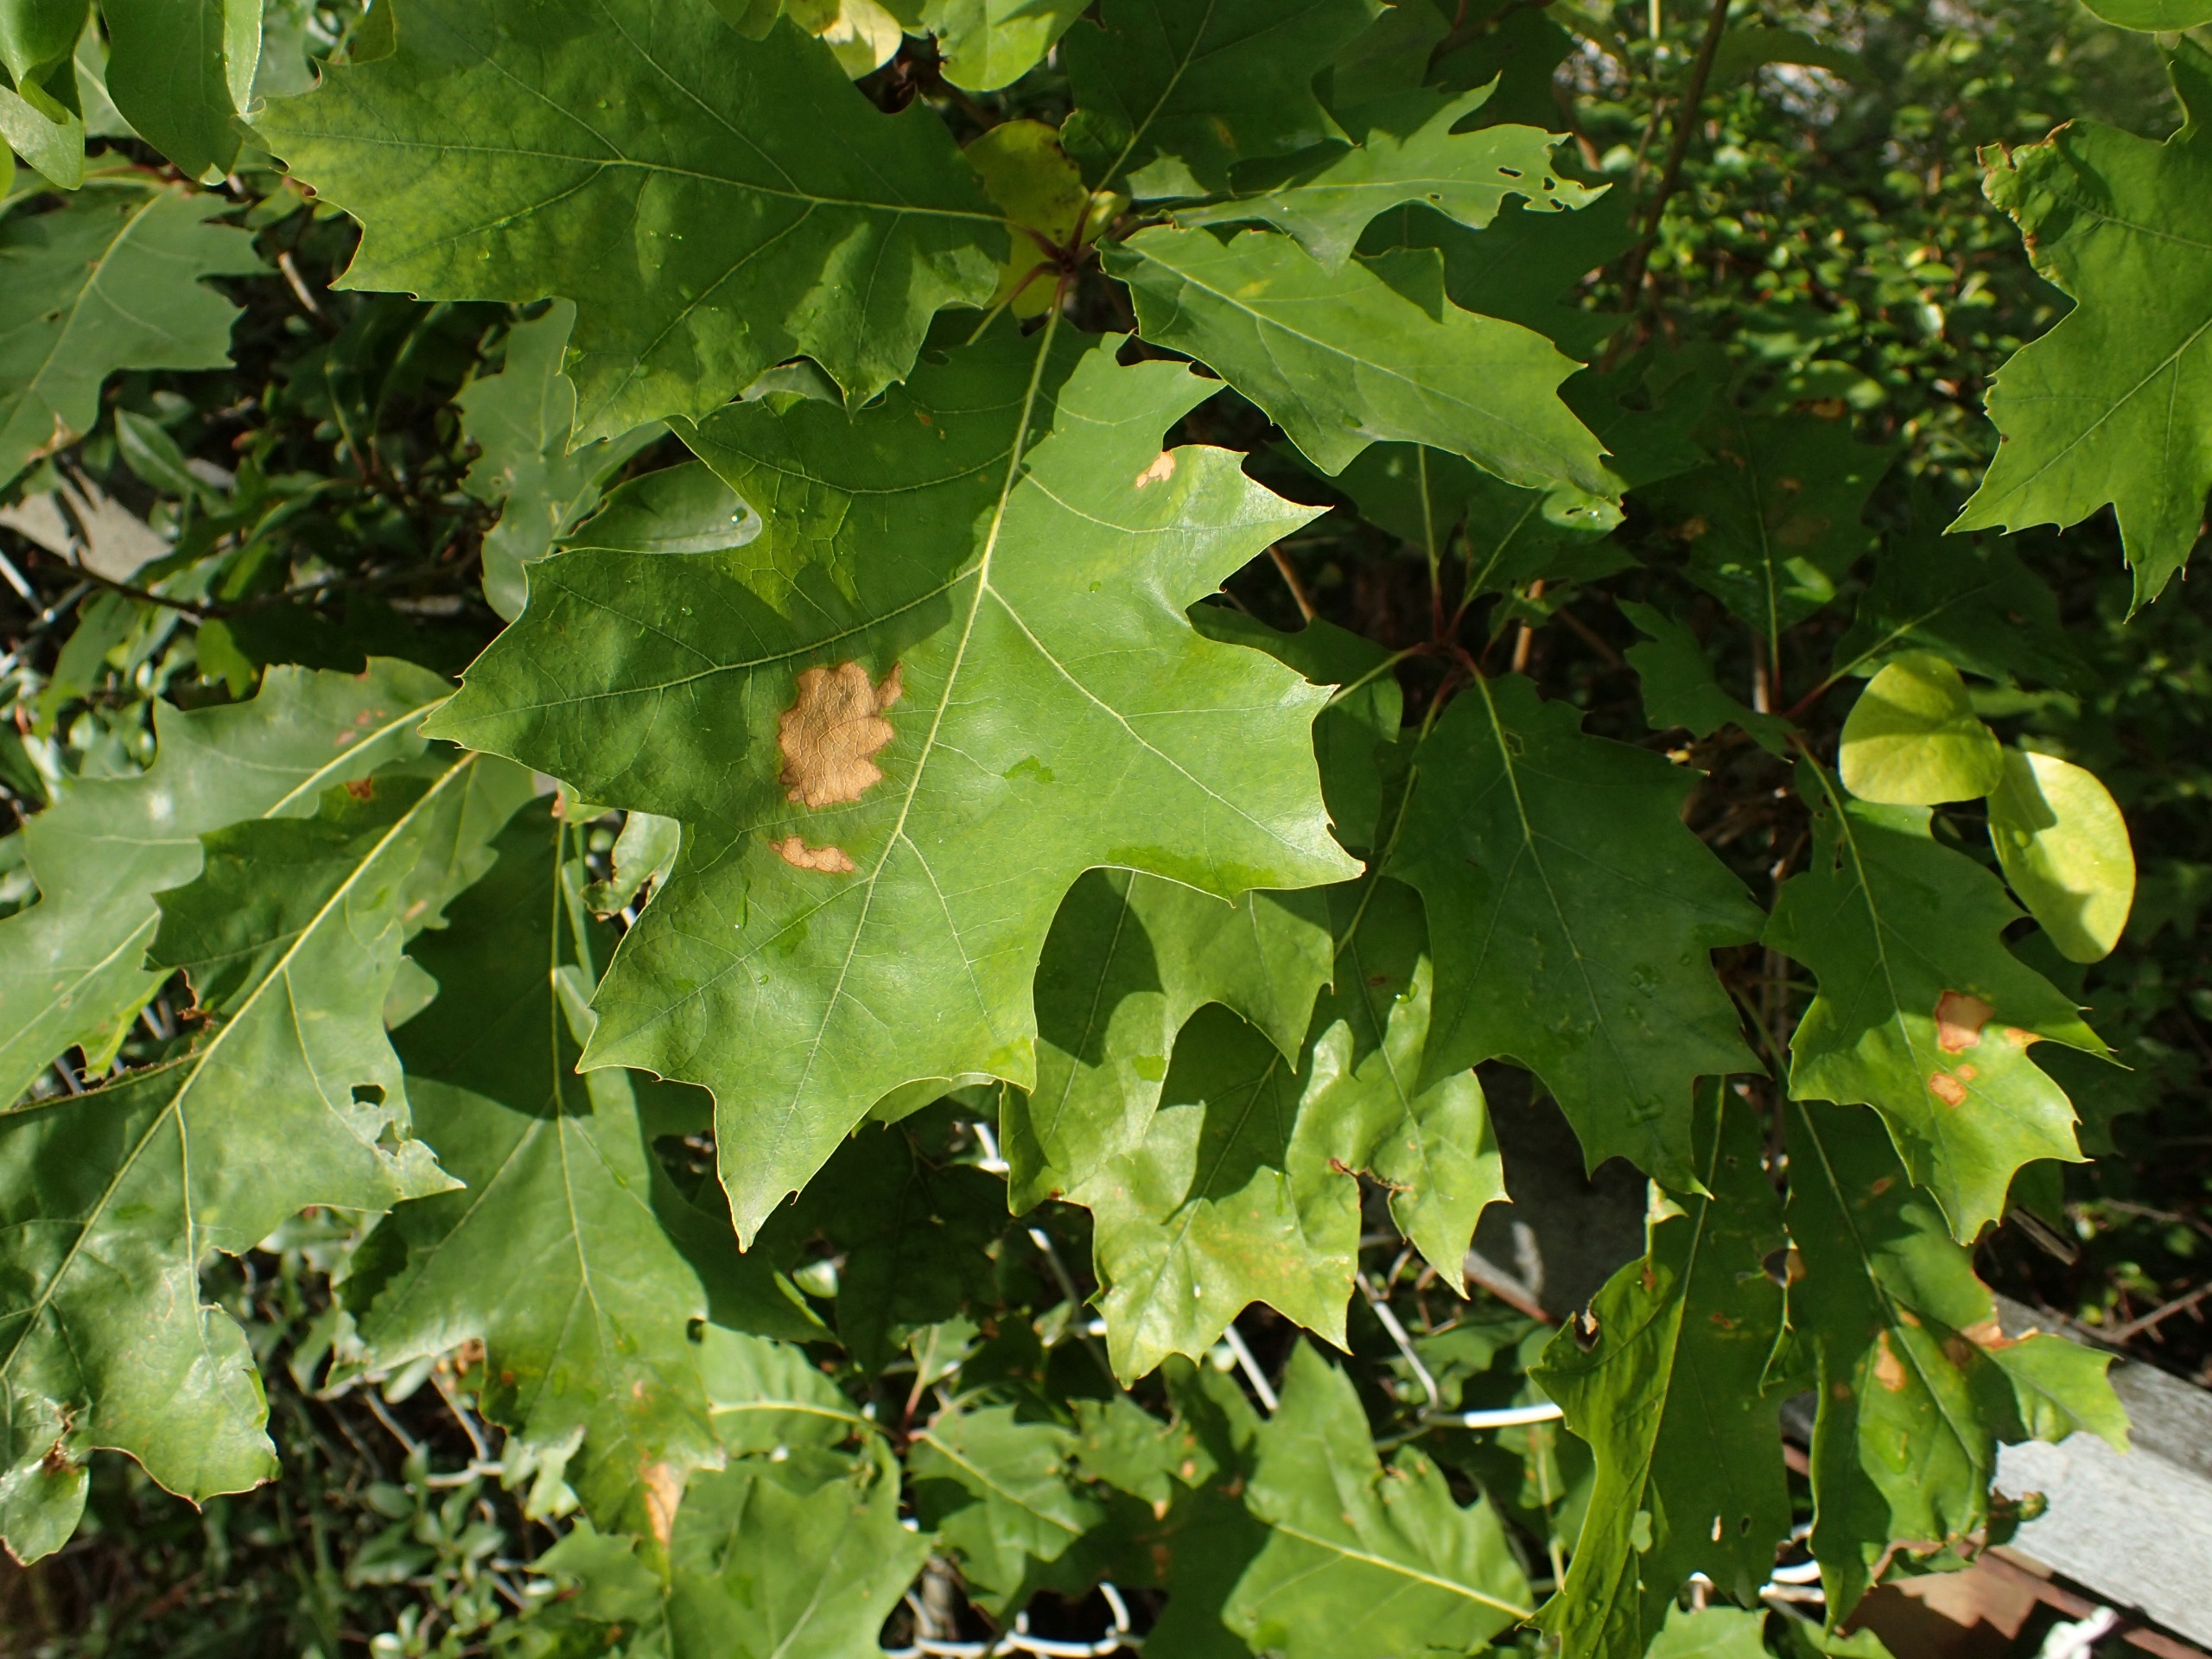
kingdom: Plantae
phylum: Tracheophyta
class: Magnoliopsida
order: Fagales
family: Fagaceae
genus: Quercus
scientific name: Quercus rubra
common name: Rød-eg
